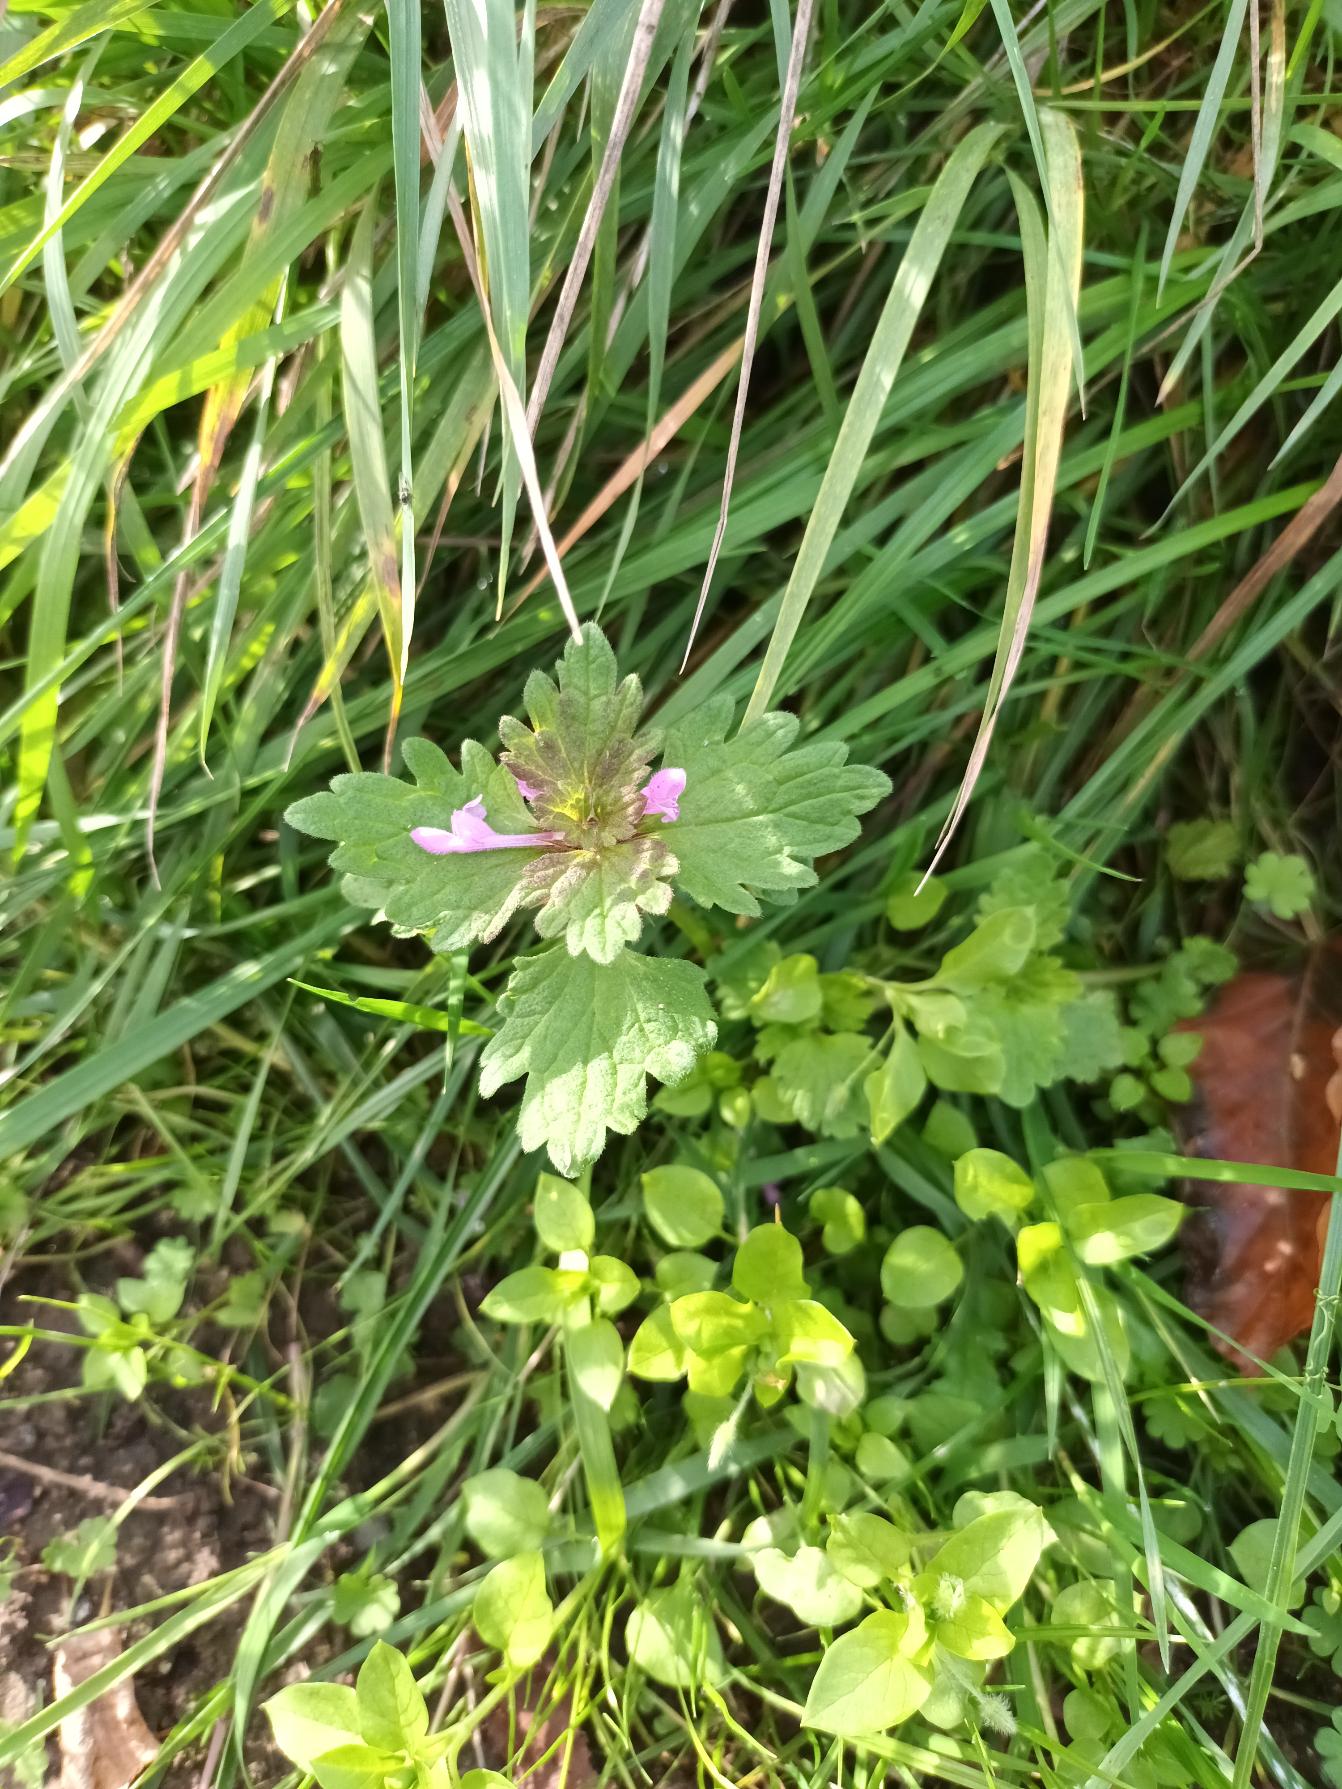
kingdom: Plantae
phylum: Tracheophyta
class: Magnoliopsida
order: Lamiales
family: Lamiaceae
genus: Lamium
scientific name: Lamium hybridum
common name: Fliget tvetand
